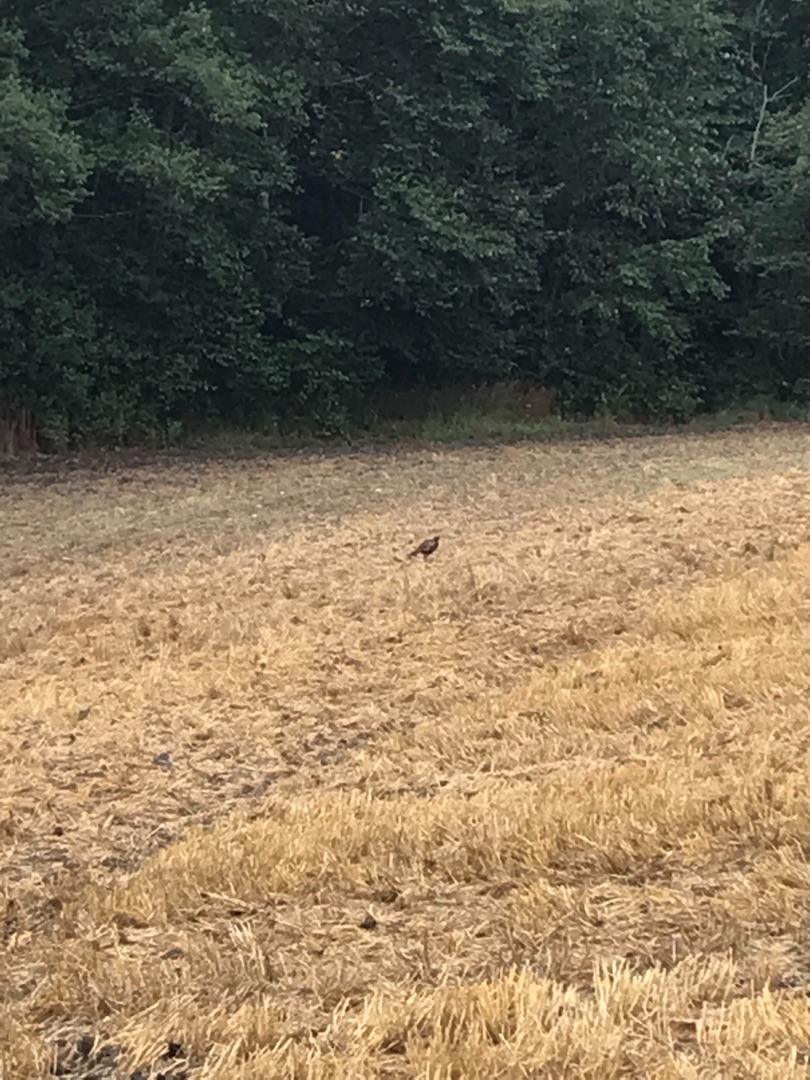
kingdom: Animalia
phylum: Chordata
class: Aves
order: Galliformes
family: Phasianidae
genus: Phasianus
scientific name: Phasianus colchicus
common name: Fasan
